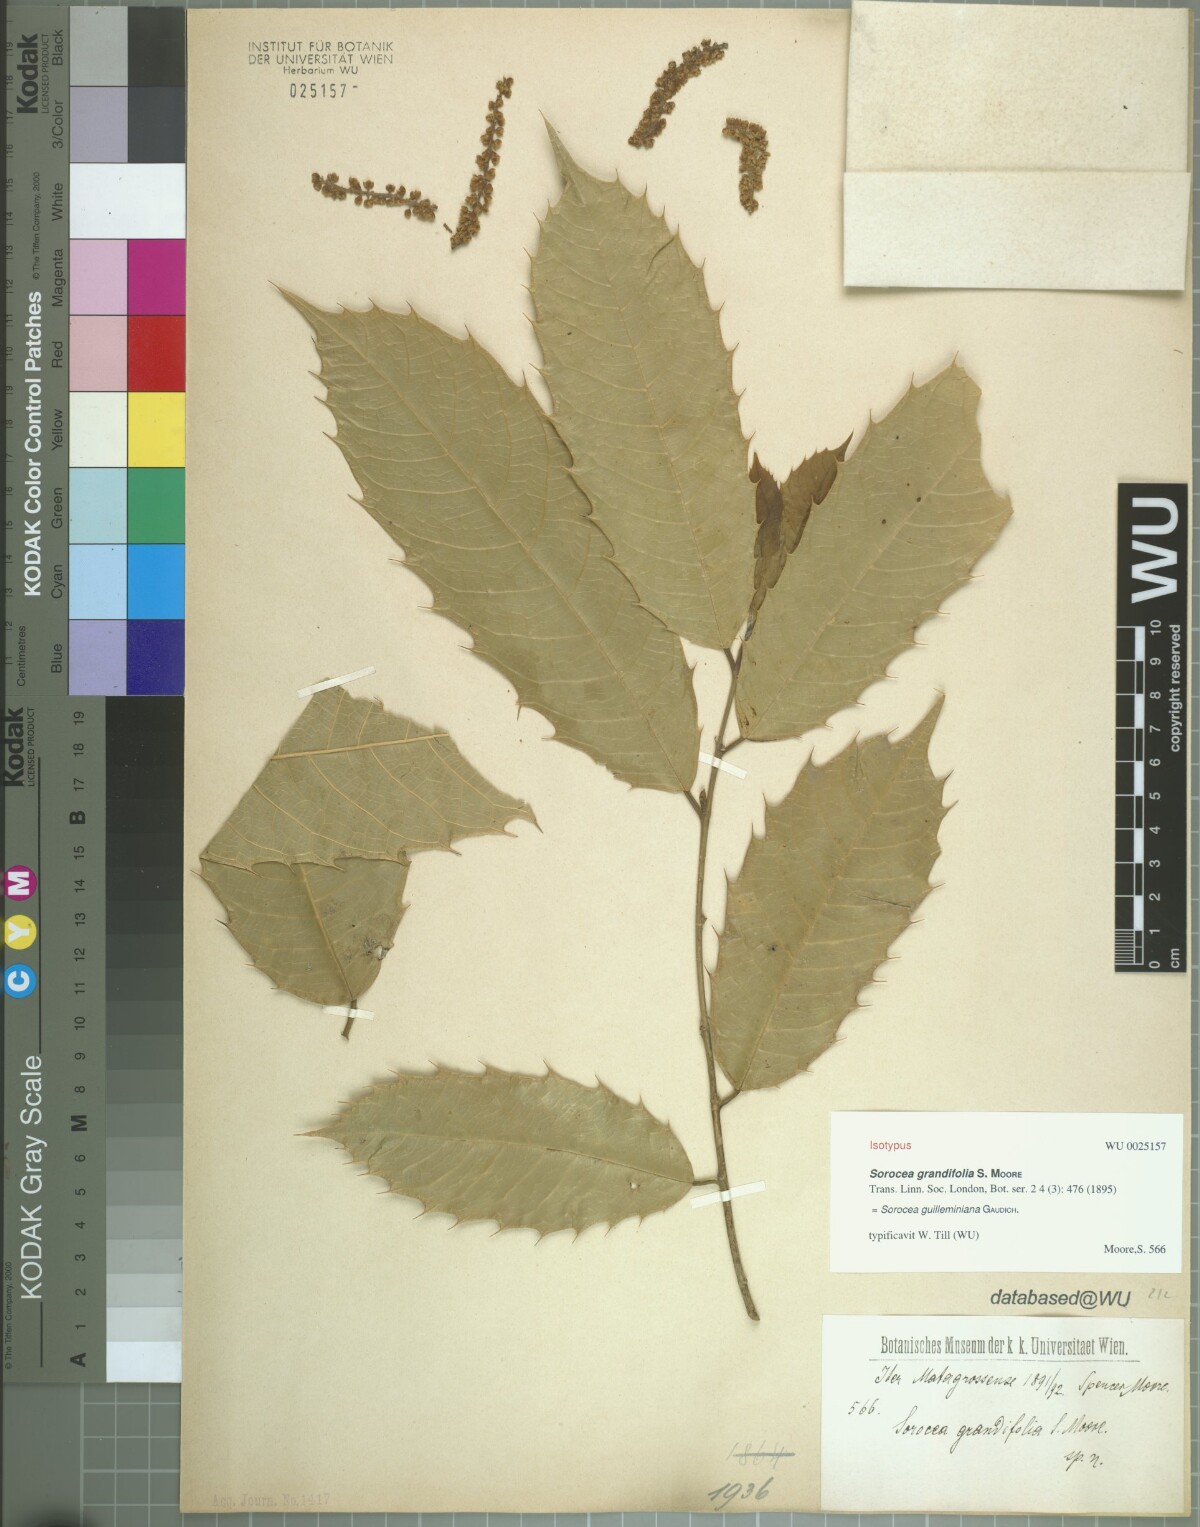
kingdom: Plantae
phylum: Tracheophyta
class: Magnoliopsida
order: Rosales
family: Moraceae
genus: Sorocea
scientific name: Sorocea guilleminiana
